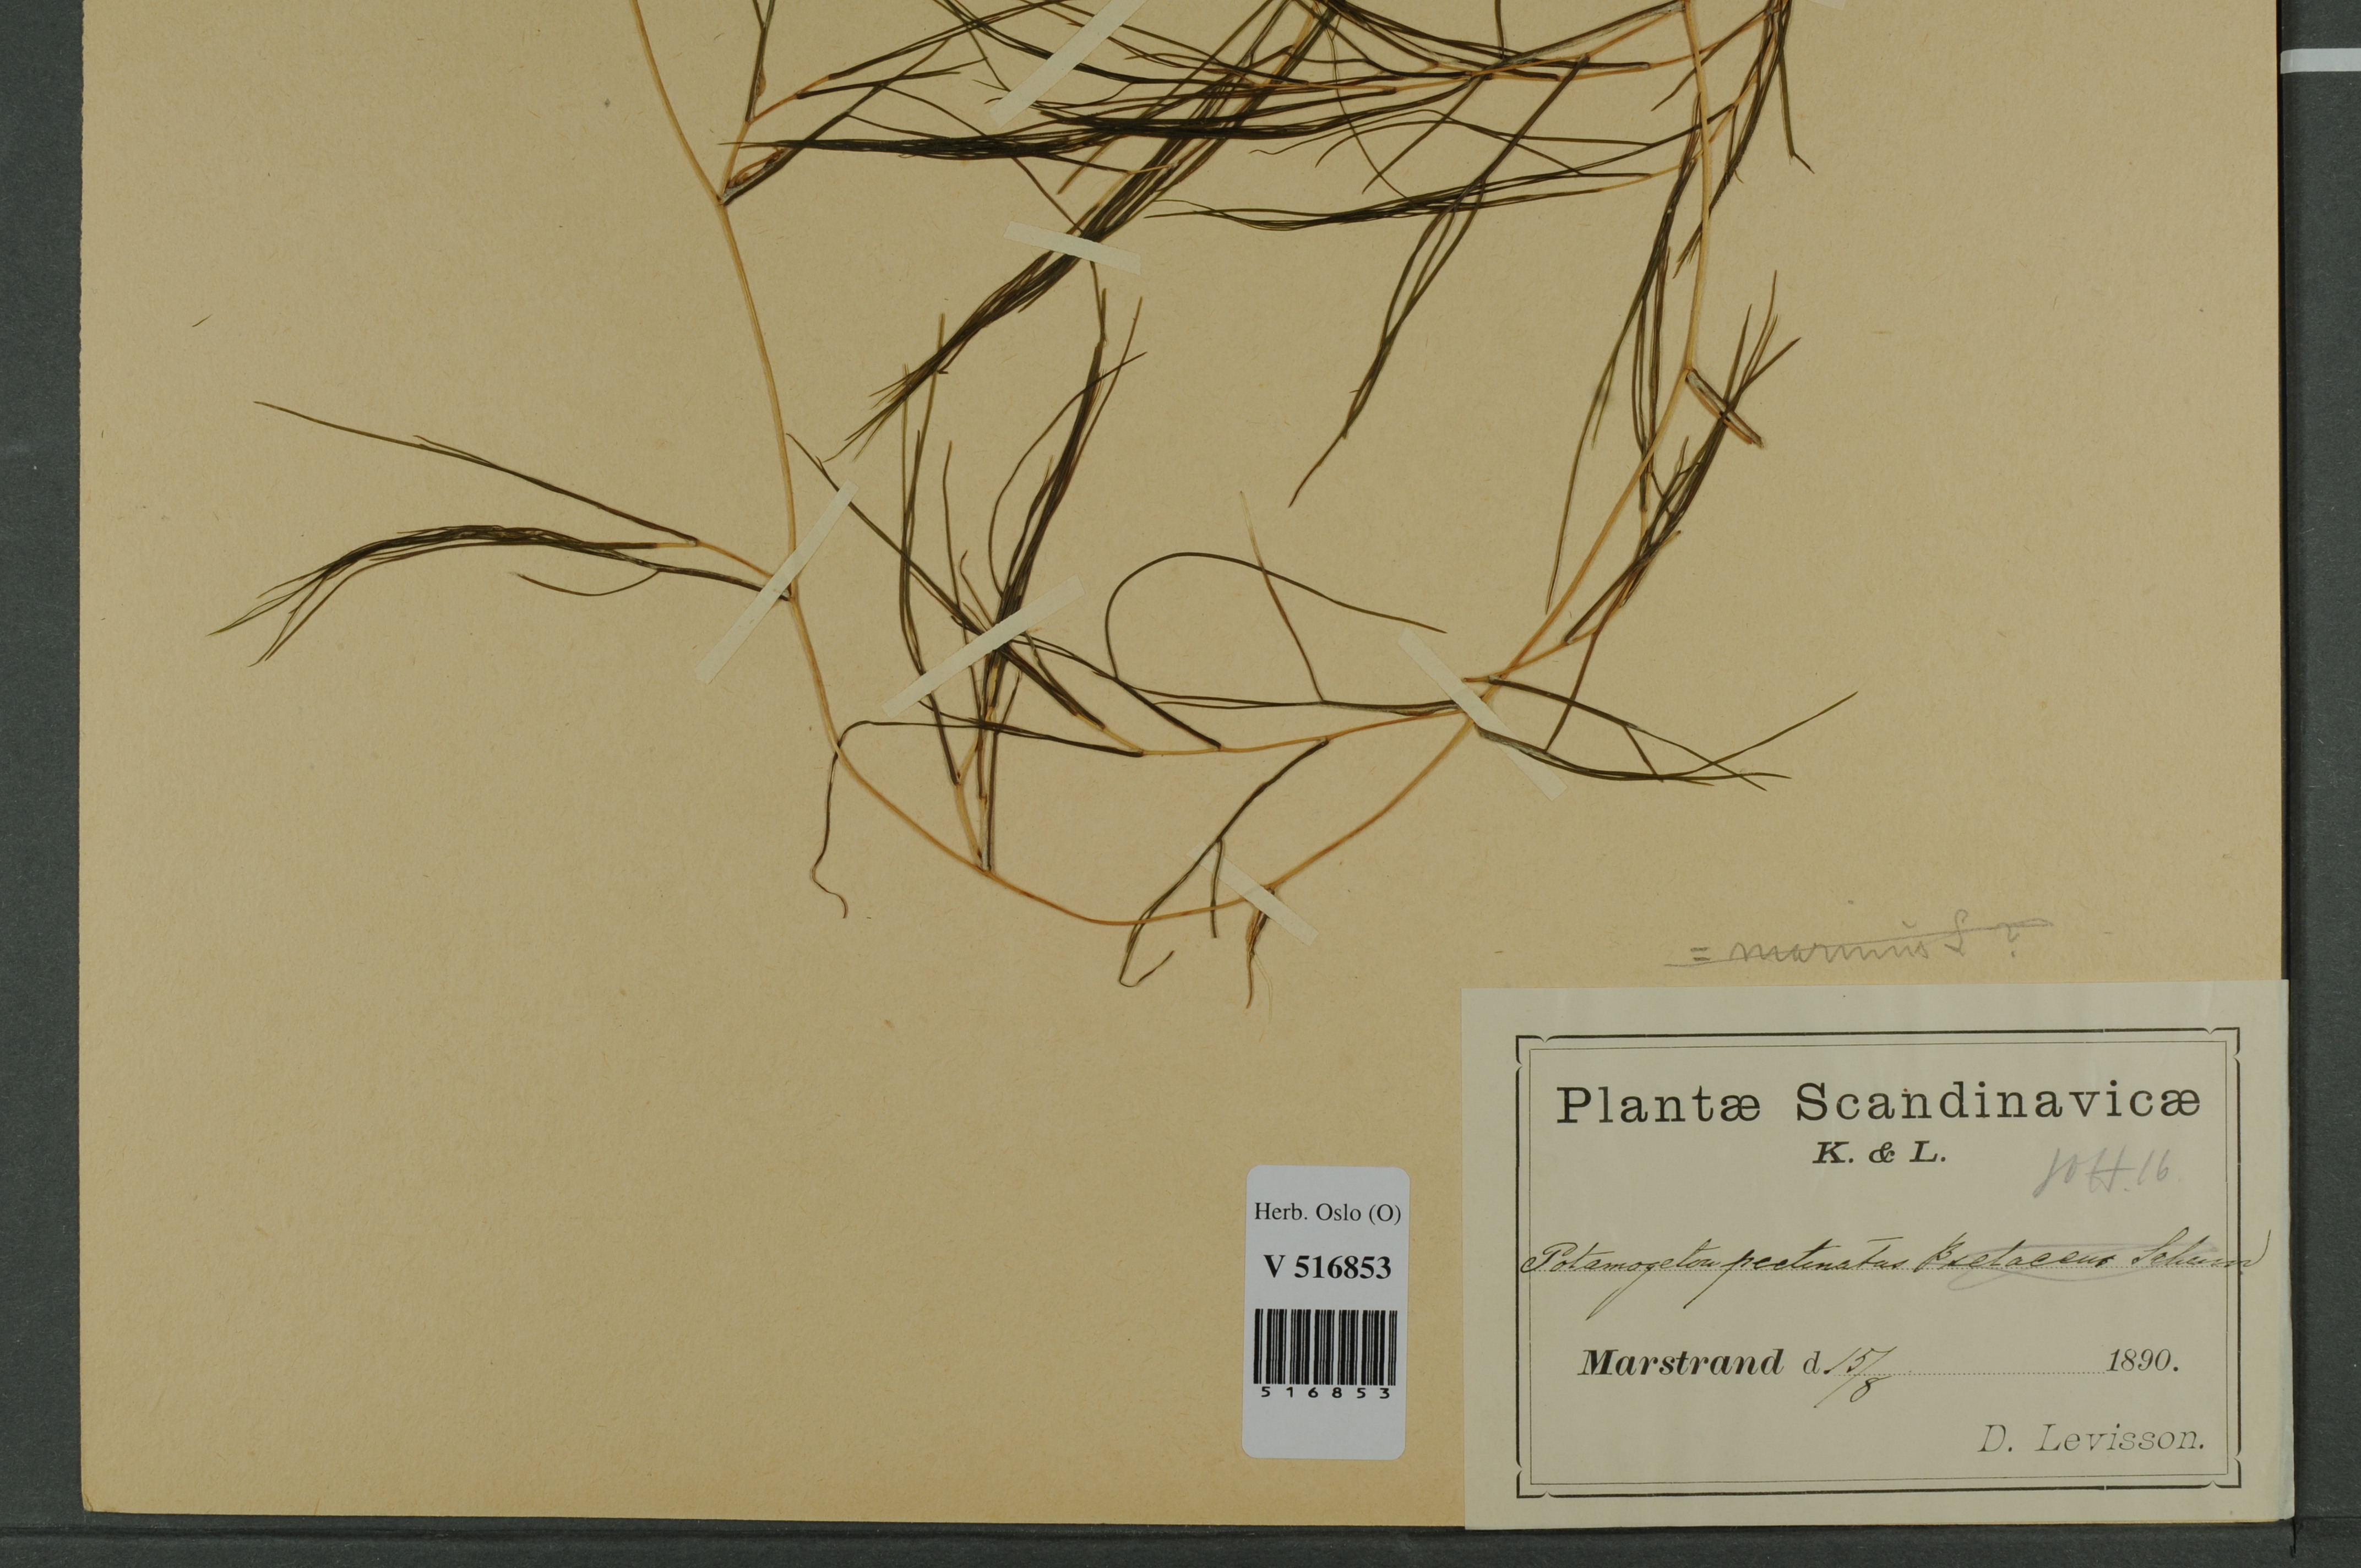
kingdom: Plantae
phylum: Tracheophyta
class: Liliopsida
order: Alismatales
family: Potamogetonaceae
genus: Stuckenia
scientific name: Stuckenia pectinata
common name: Sago pondweed
